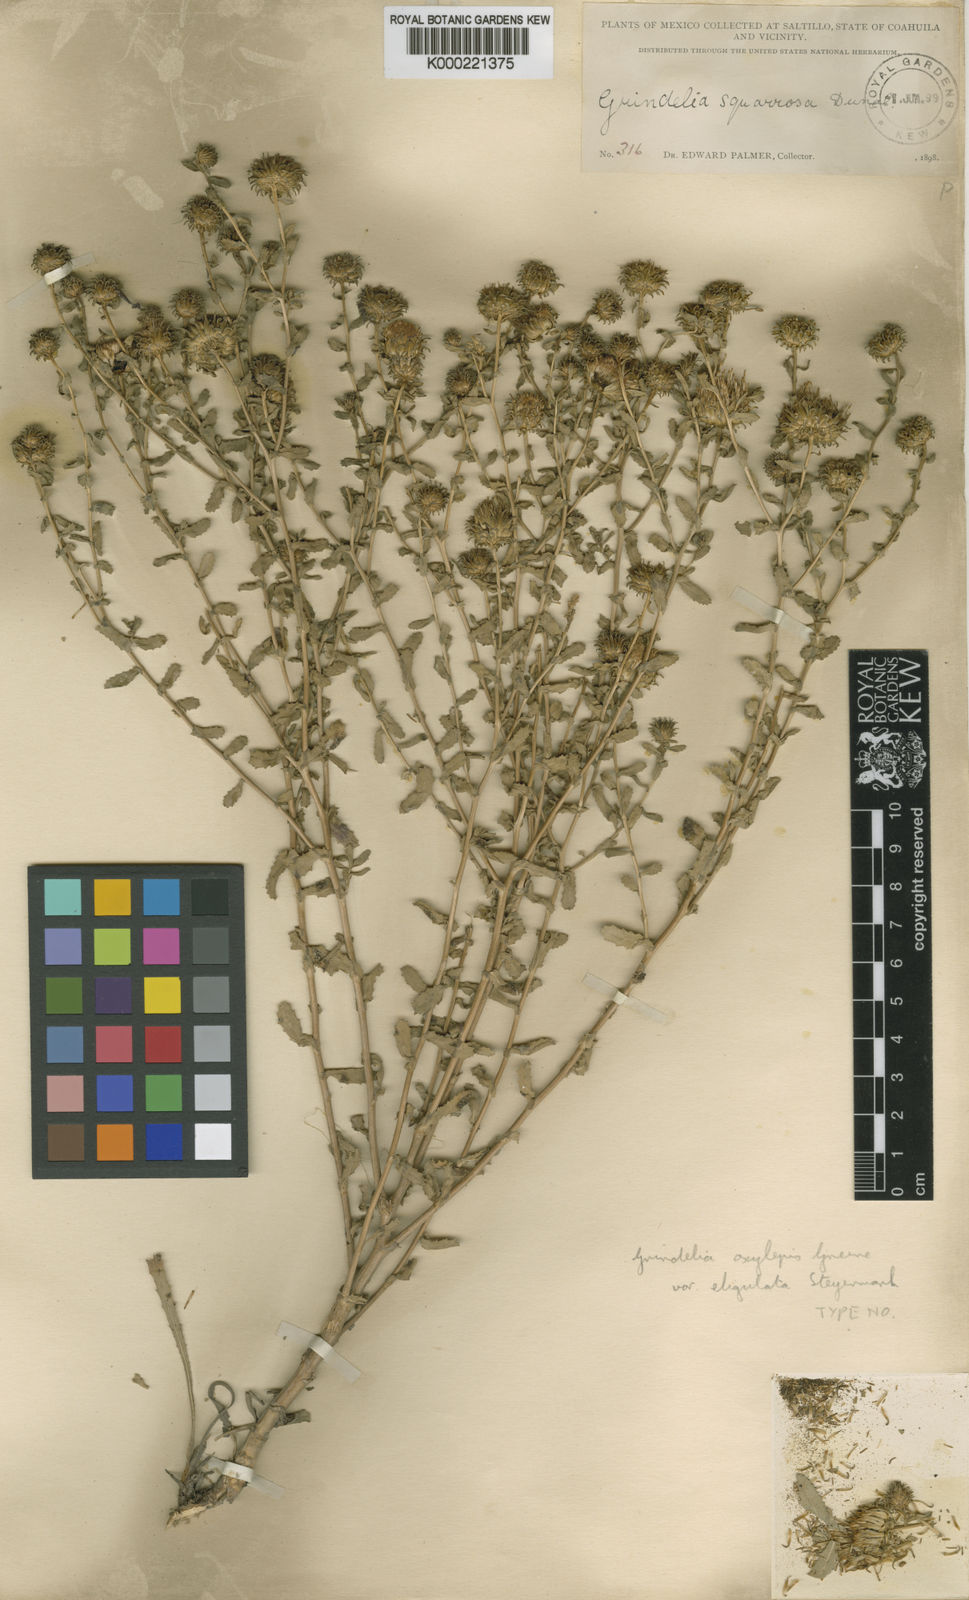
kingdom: Plantae
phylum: Tracheophyta
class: Magnoliopsida
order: Asterales
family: Asteraceae
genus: Grindelia
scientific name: Grindelia oxylepis
